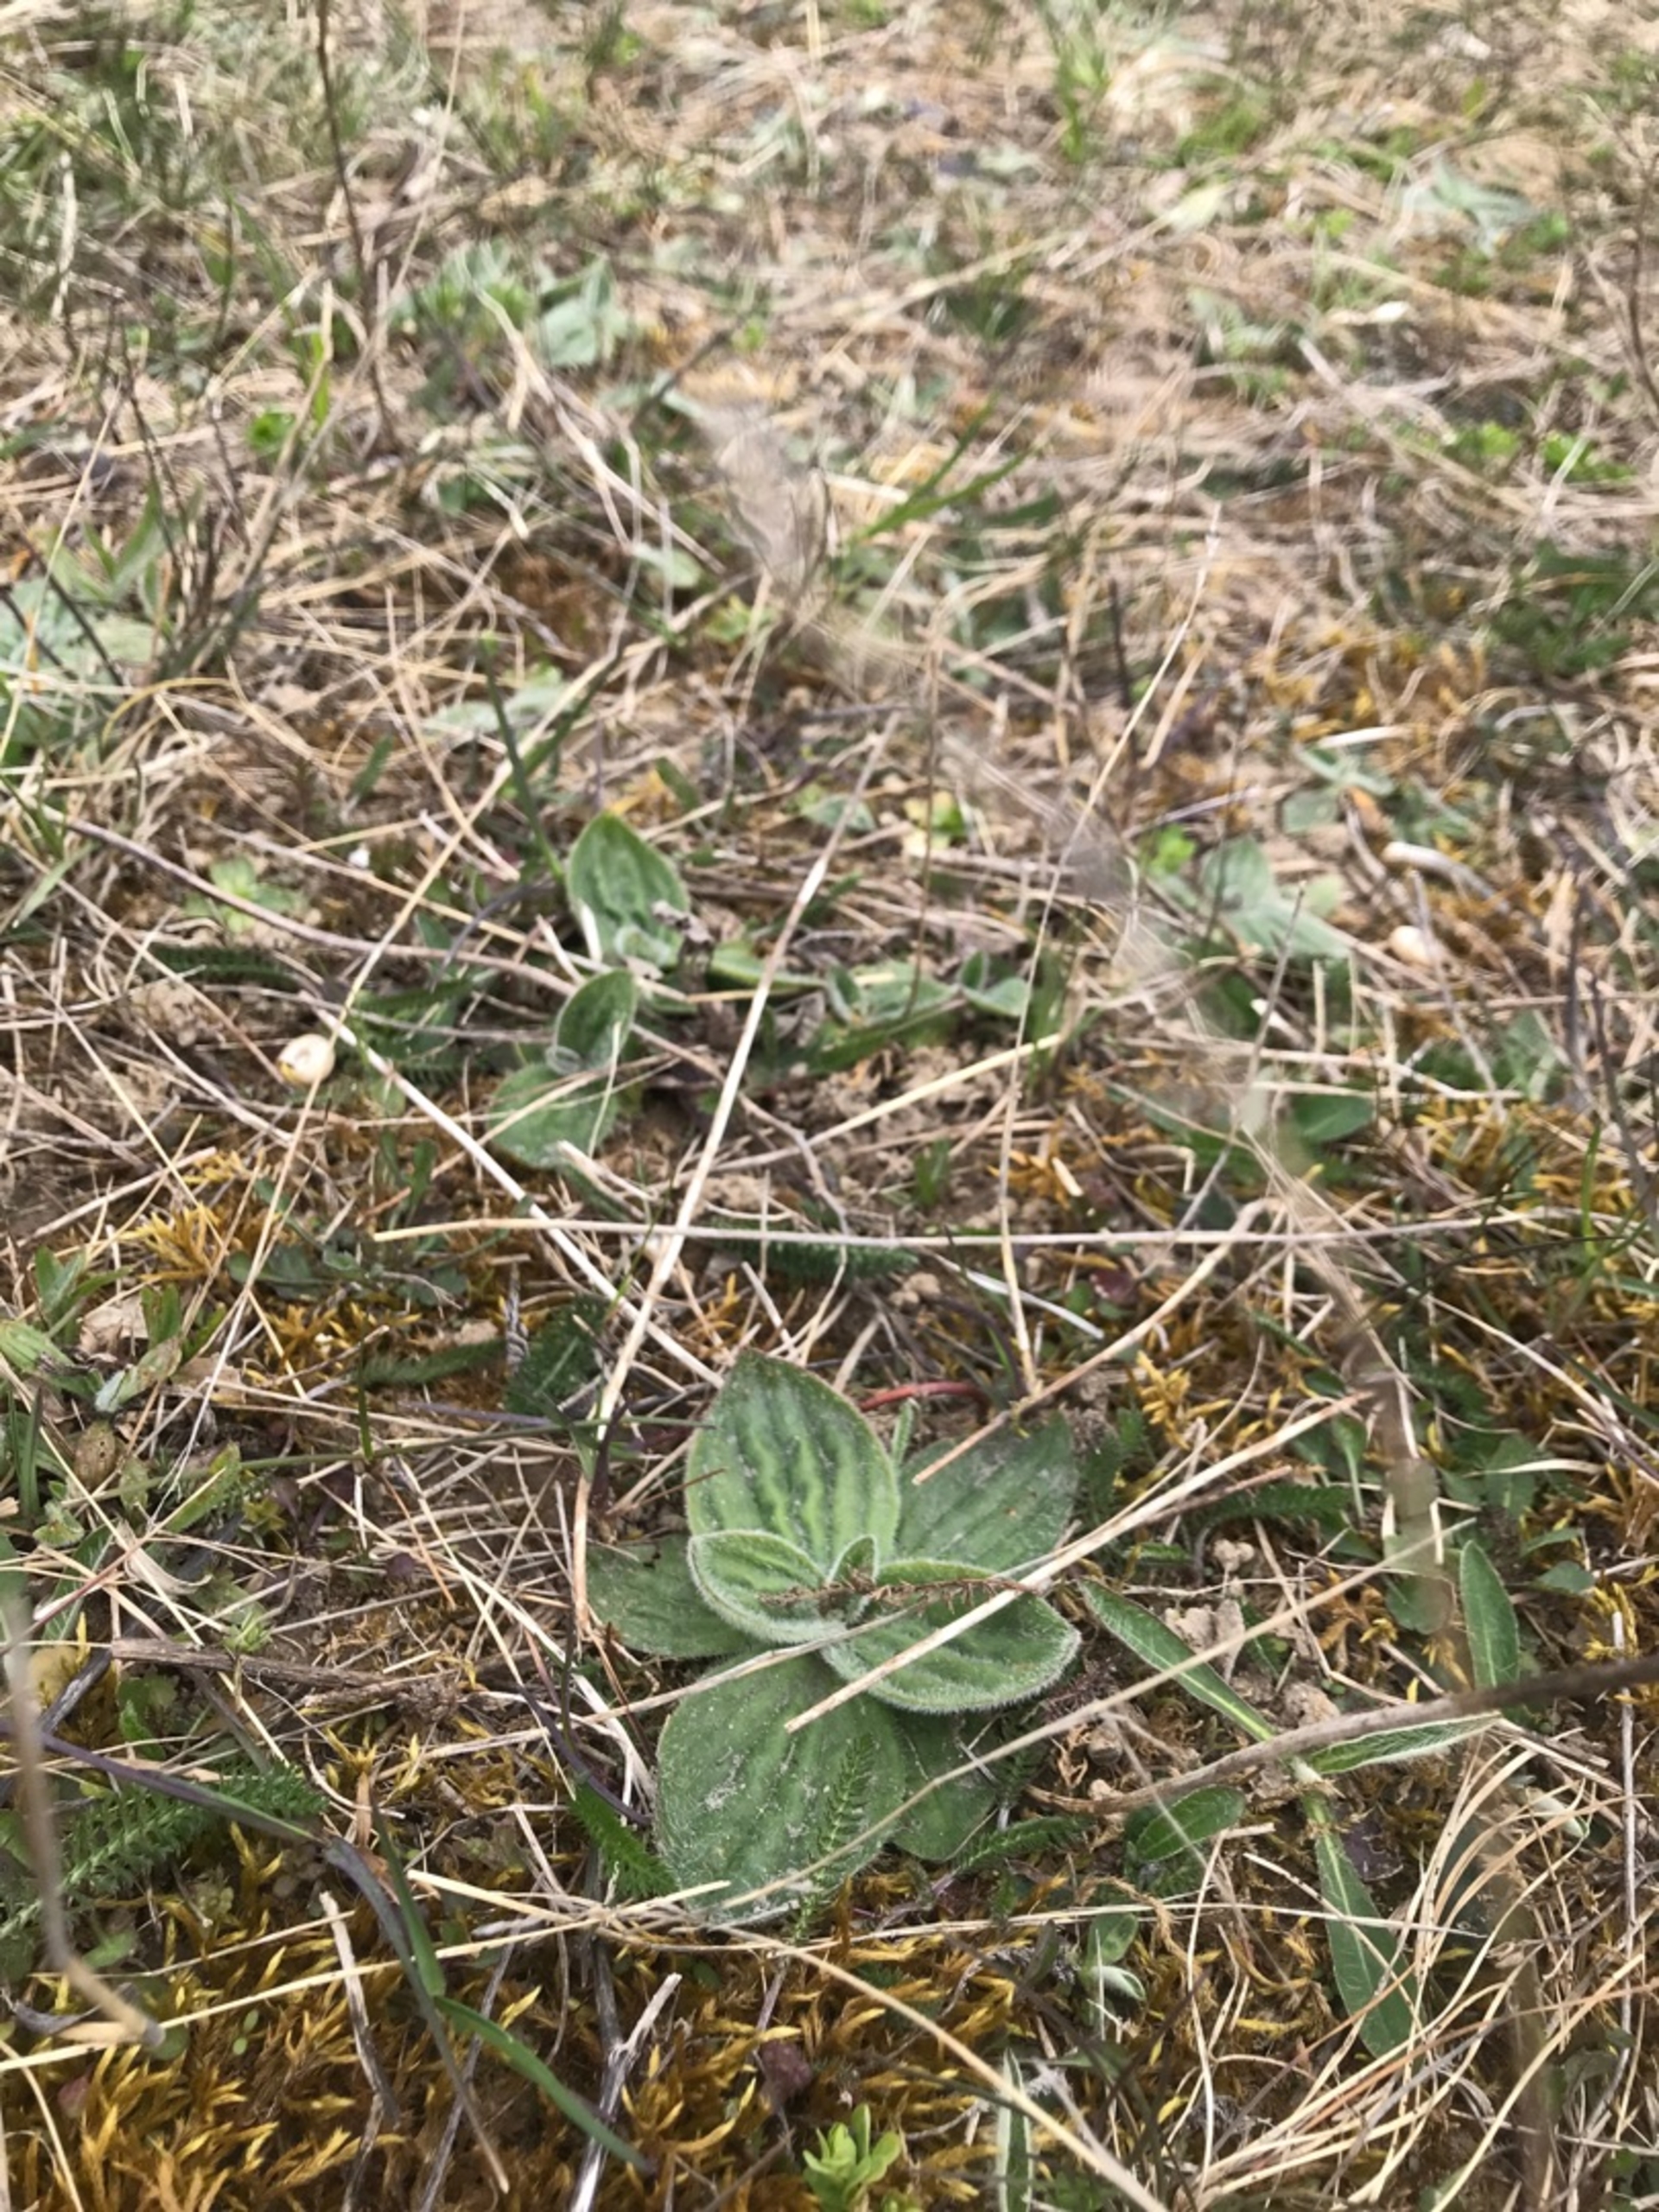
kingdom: Plantae
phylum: Tracheophyta
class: Magnoliopsida
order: Lamiales
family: Plantaginaceae
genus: Plantago
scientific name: Plantago media
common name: Dunet vejbred
